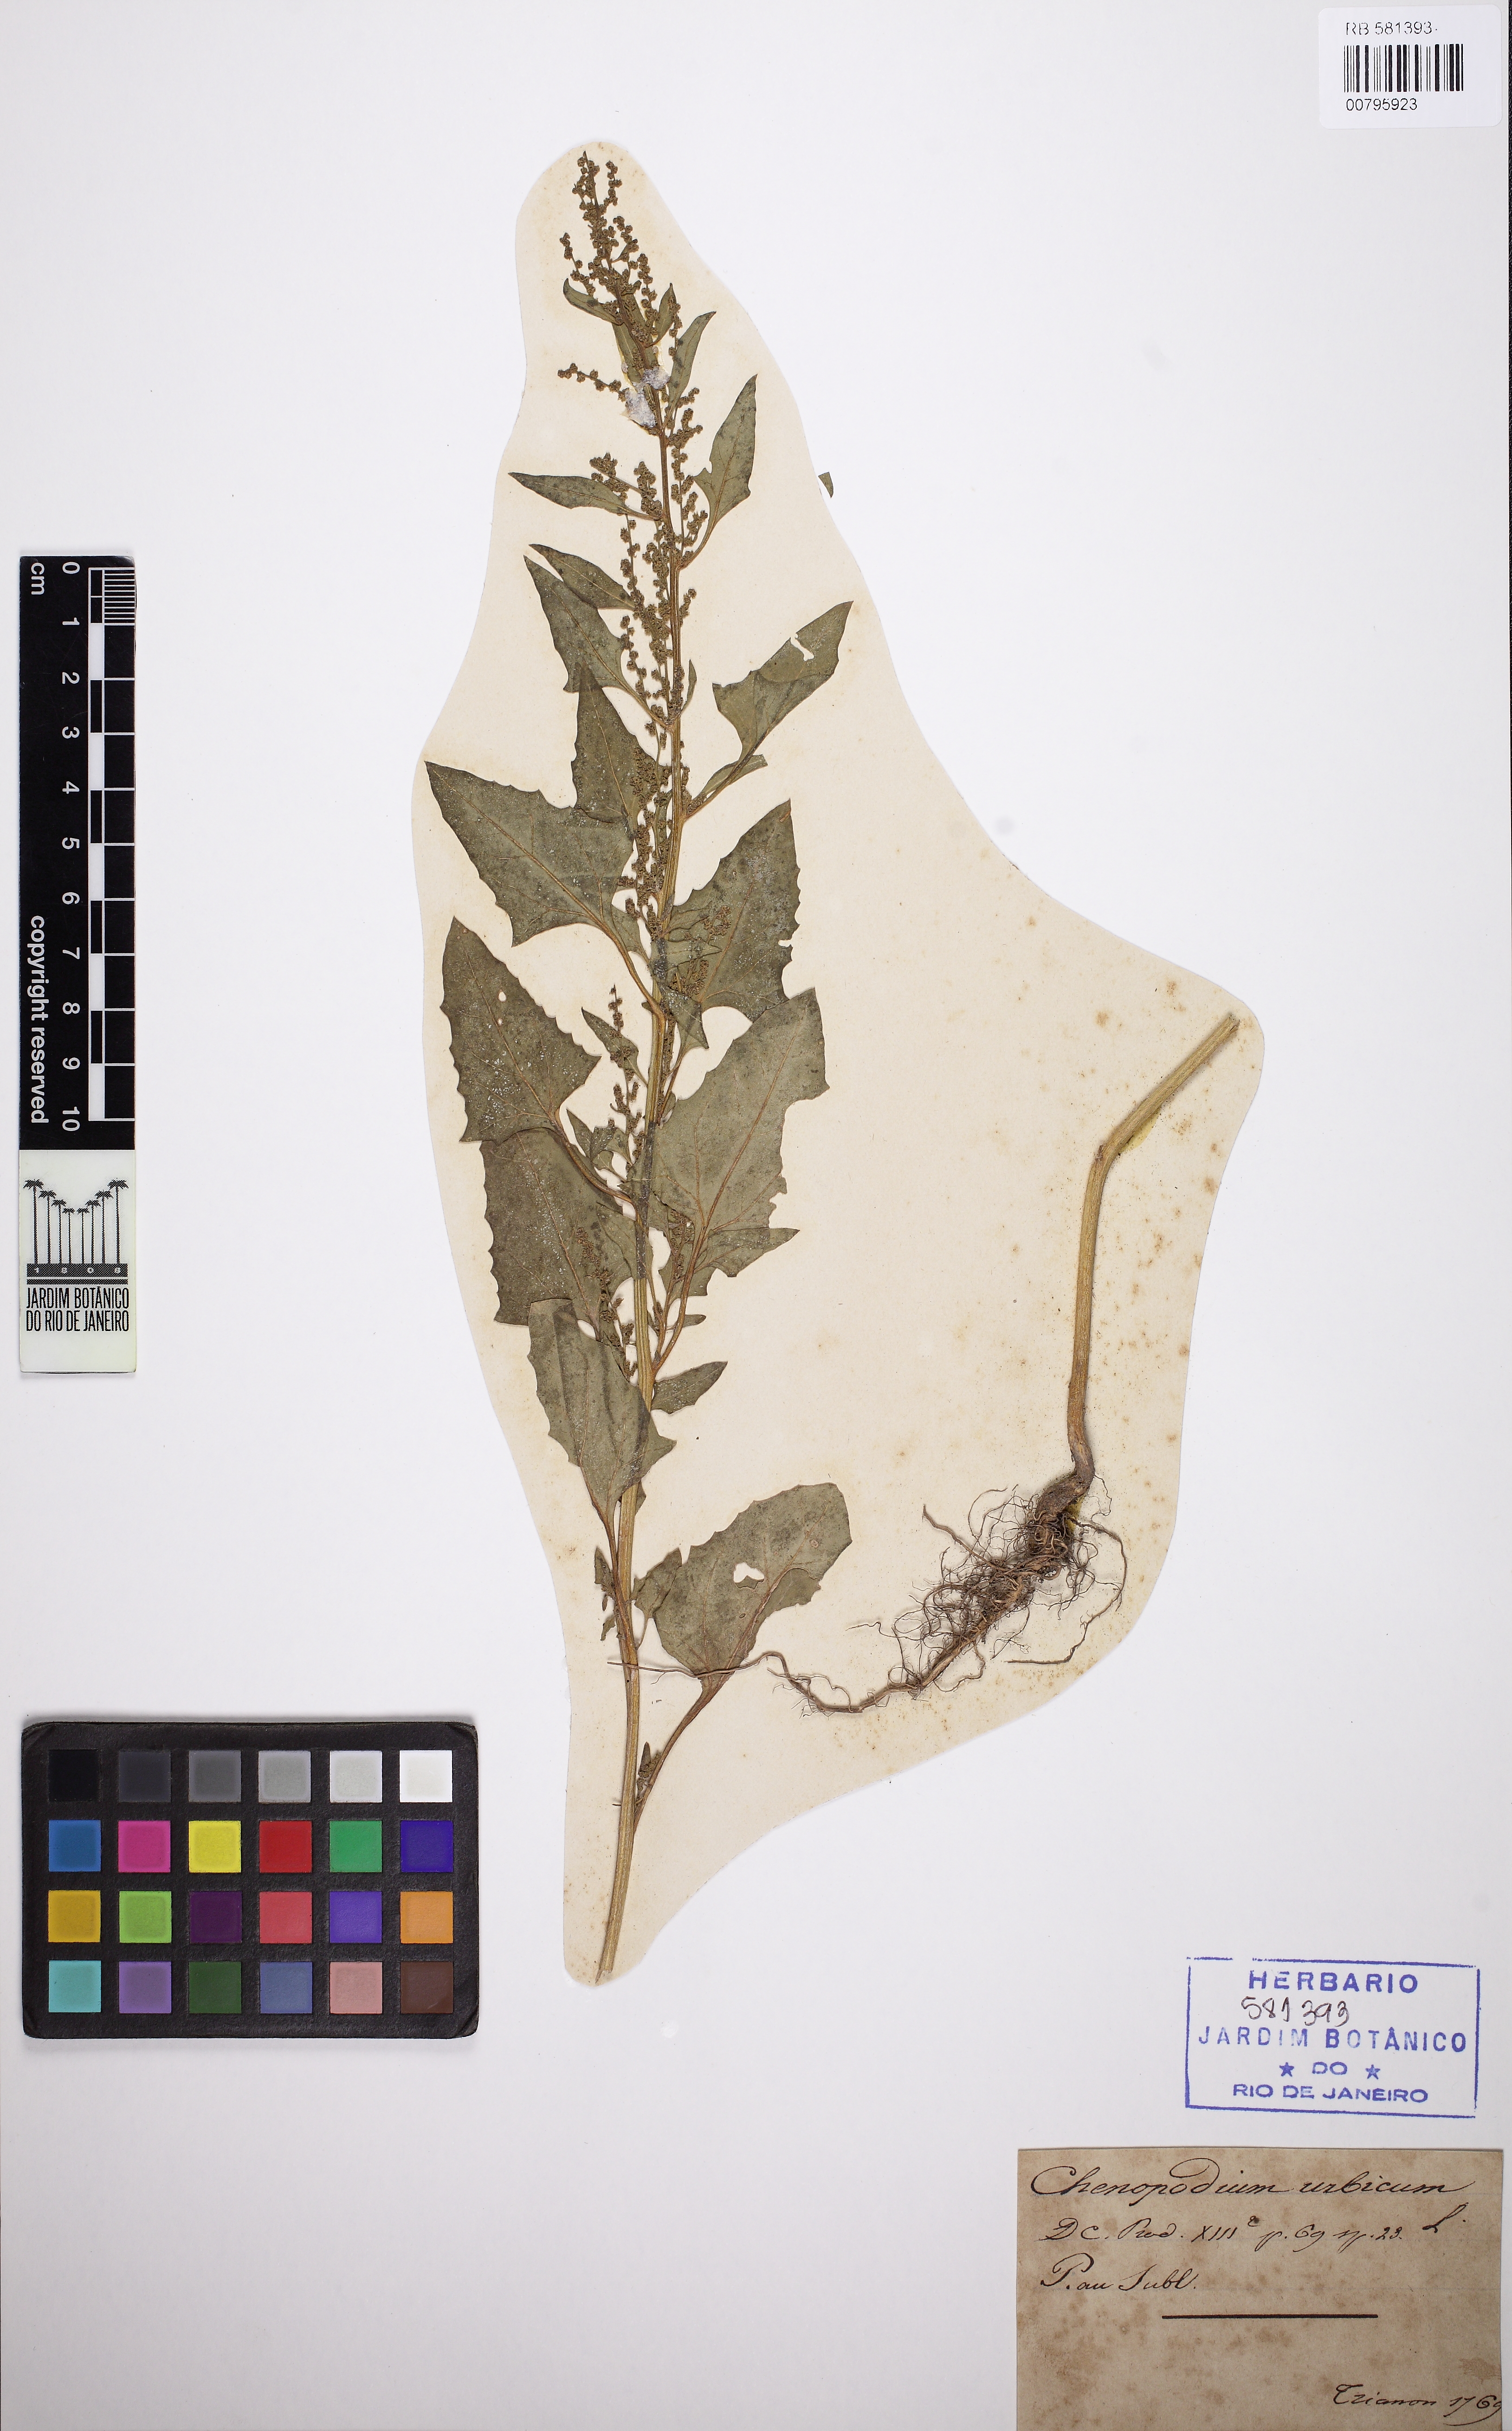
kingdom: Plantae
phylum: Tracheophyta
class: Magnoliopsida
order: Caryophyllales
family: Amaranthaceae
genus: Oxybasis
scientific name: Oxybasis urbica
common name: City goosefoot
